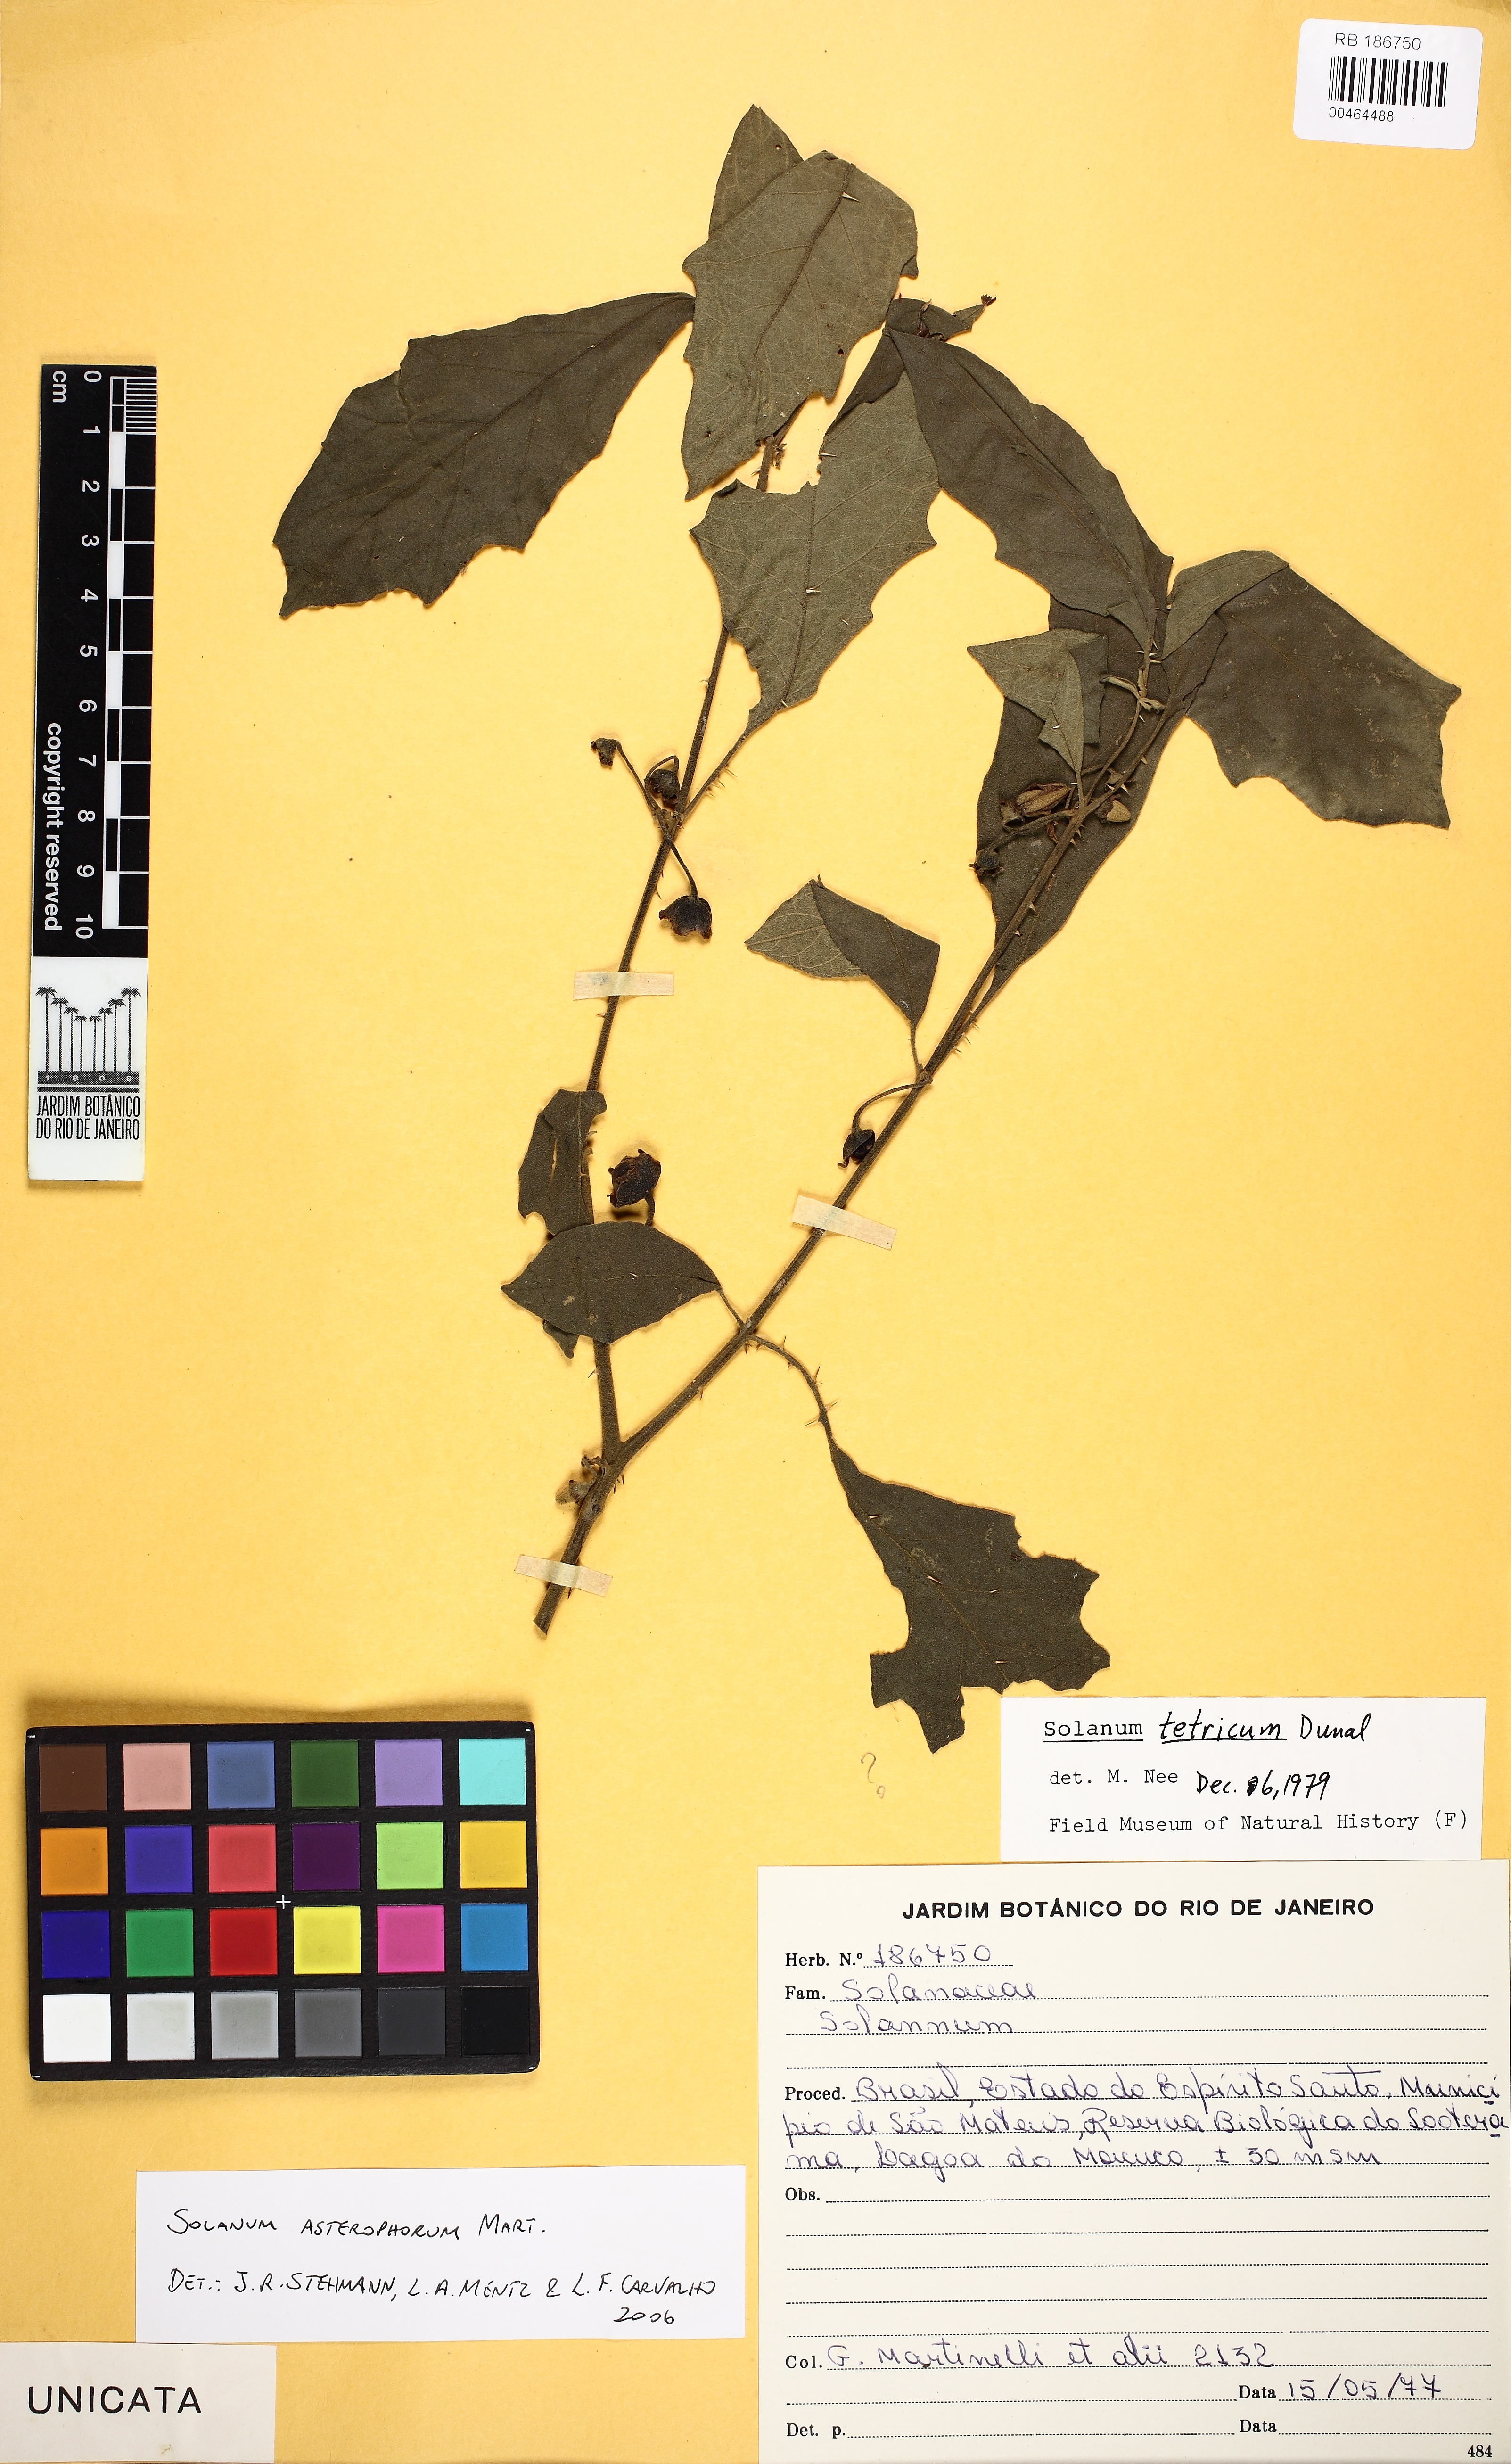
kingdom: Plantae
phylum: Tracheophyta
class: Magnoliopsida
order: Solanales
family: Solanaceae
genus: Solanum
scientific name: Solanum asterophorum
